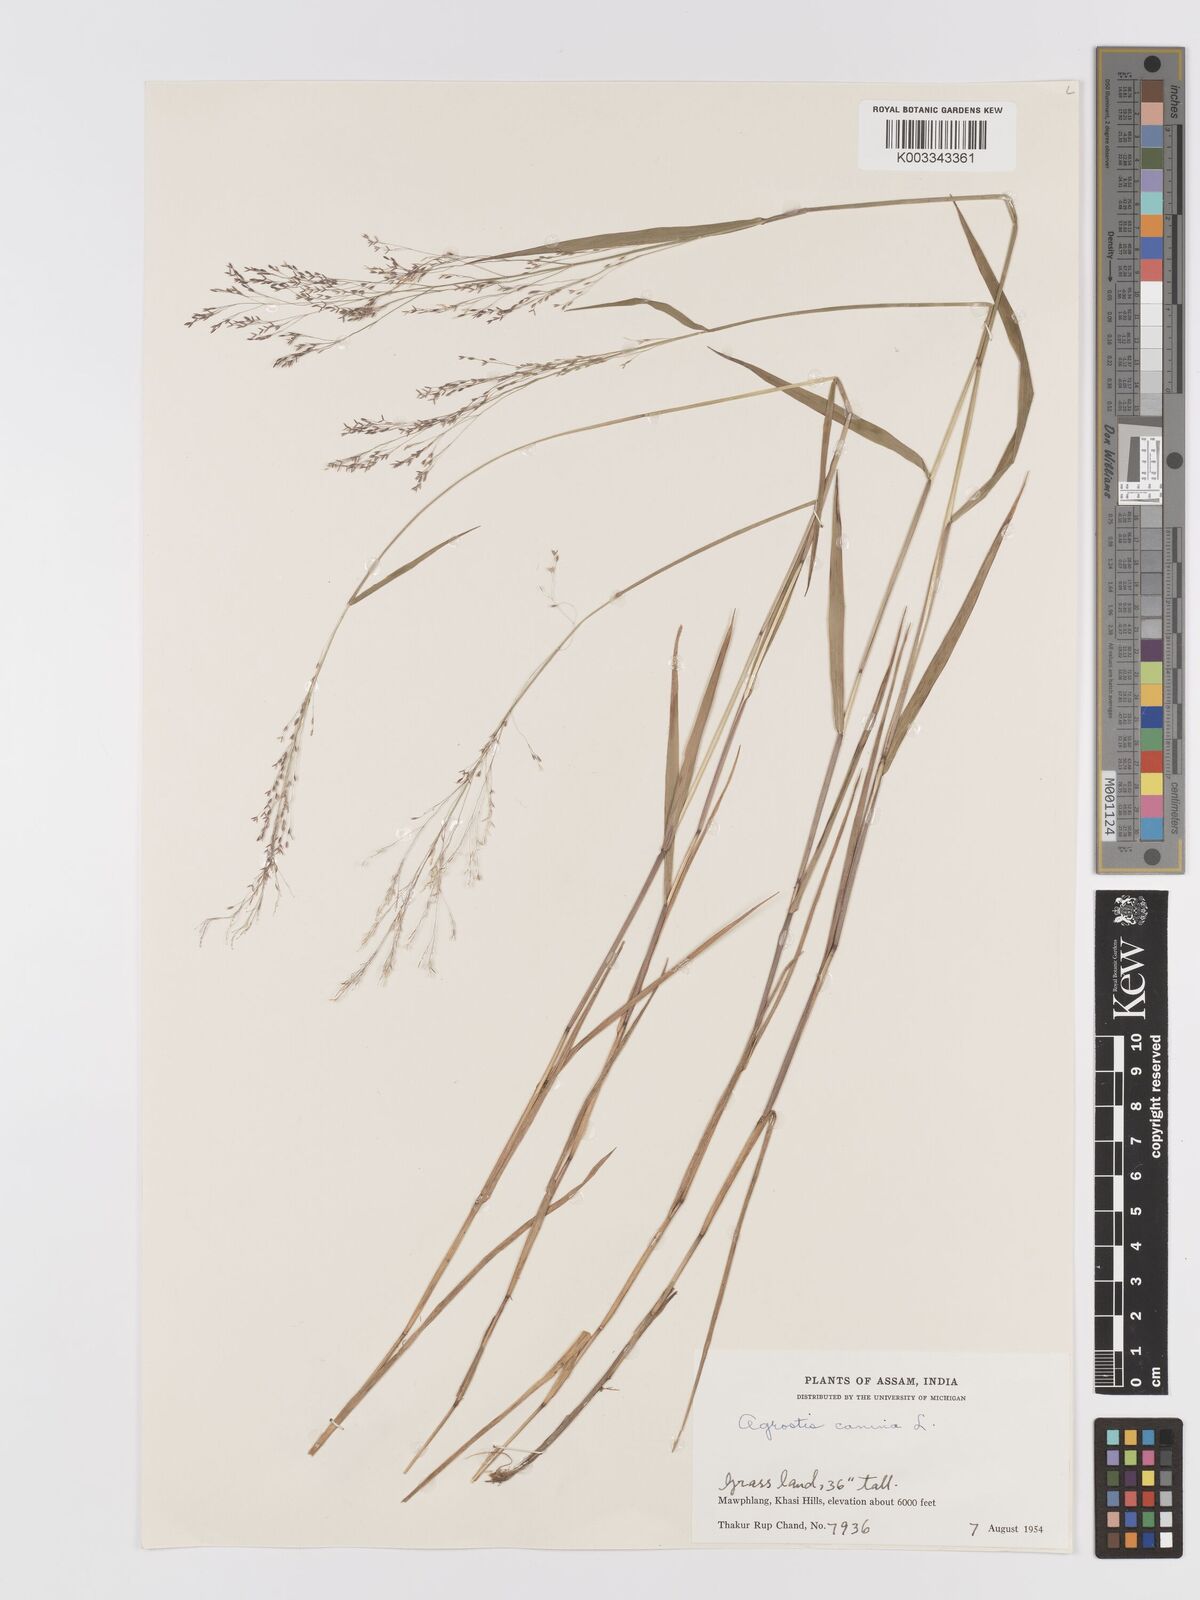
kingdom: Plantae
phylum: Tracheophyta
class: Liliopsida
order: Poales
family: Poaceae
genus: Agrostis
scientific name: Agrostis
